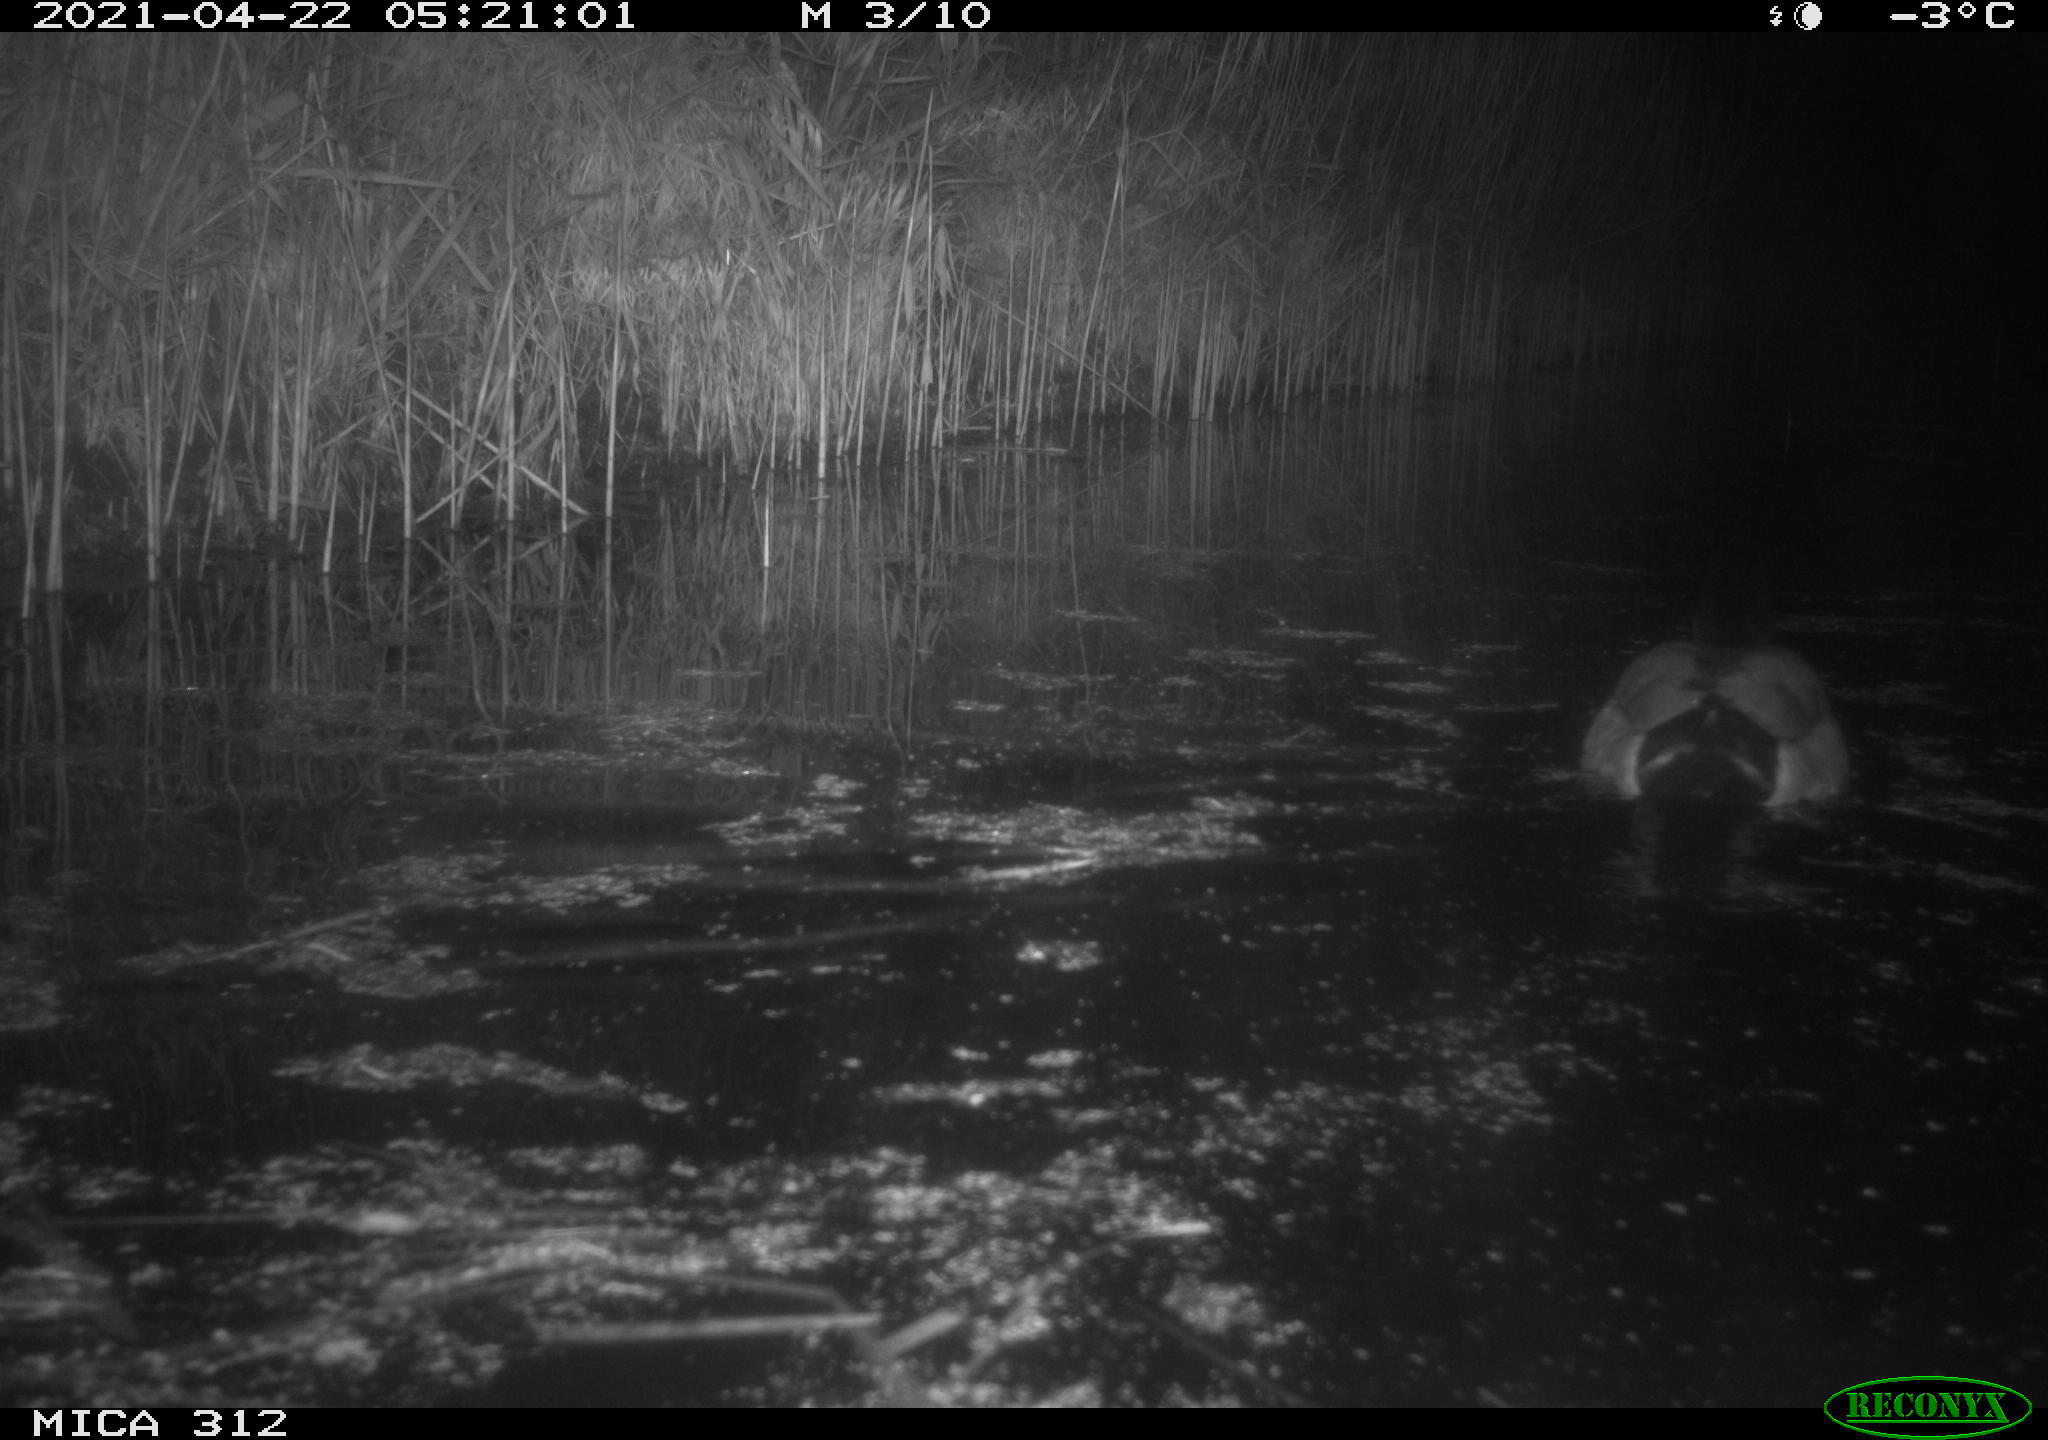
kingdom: Animalia
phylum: Chordata
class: Aves
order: Anseriformes
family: Anatidae
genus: Anas
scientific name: Anas platyrhynchos
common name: Mallard
